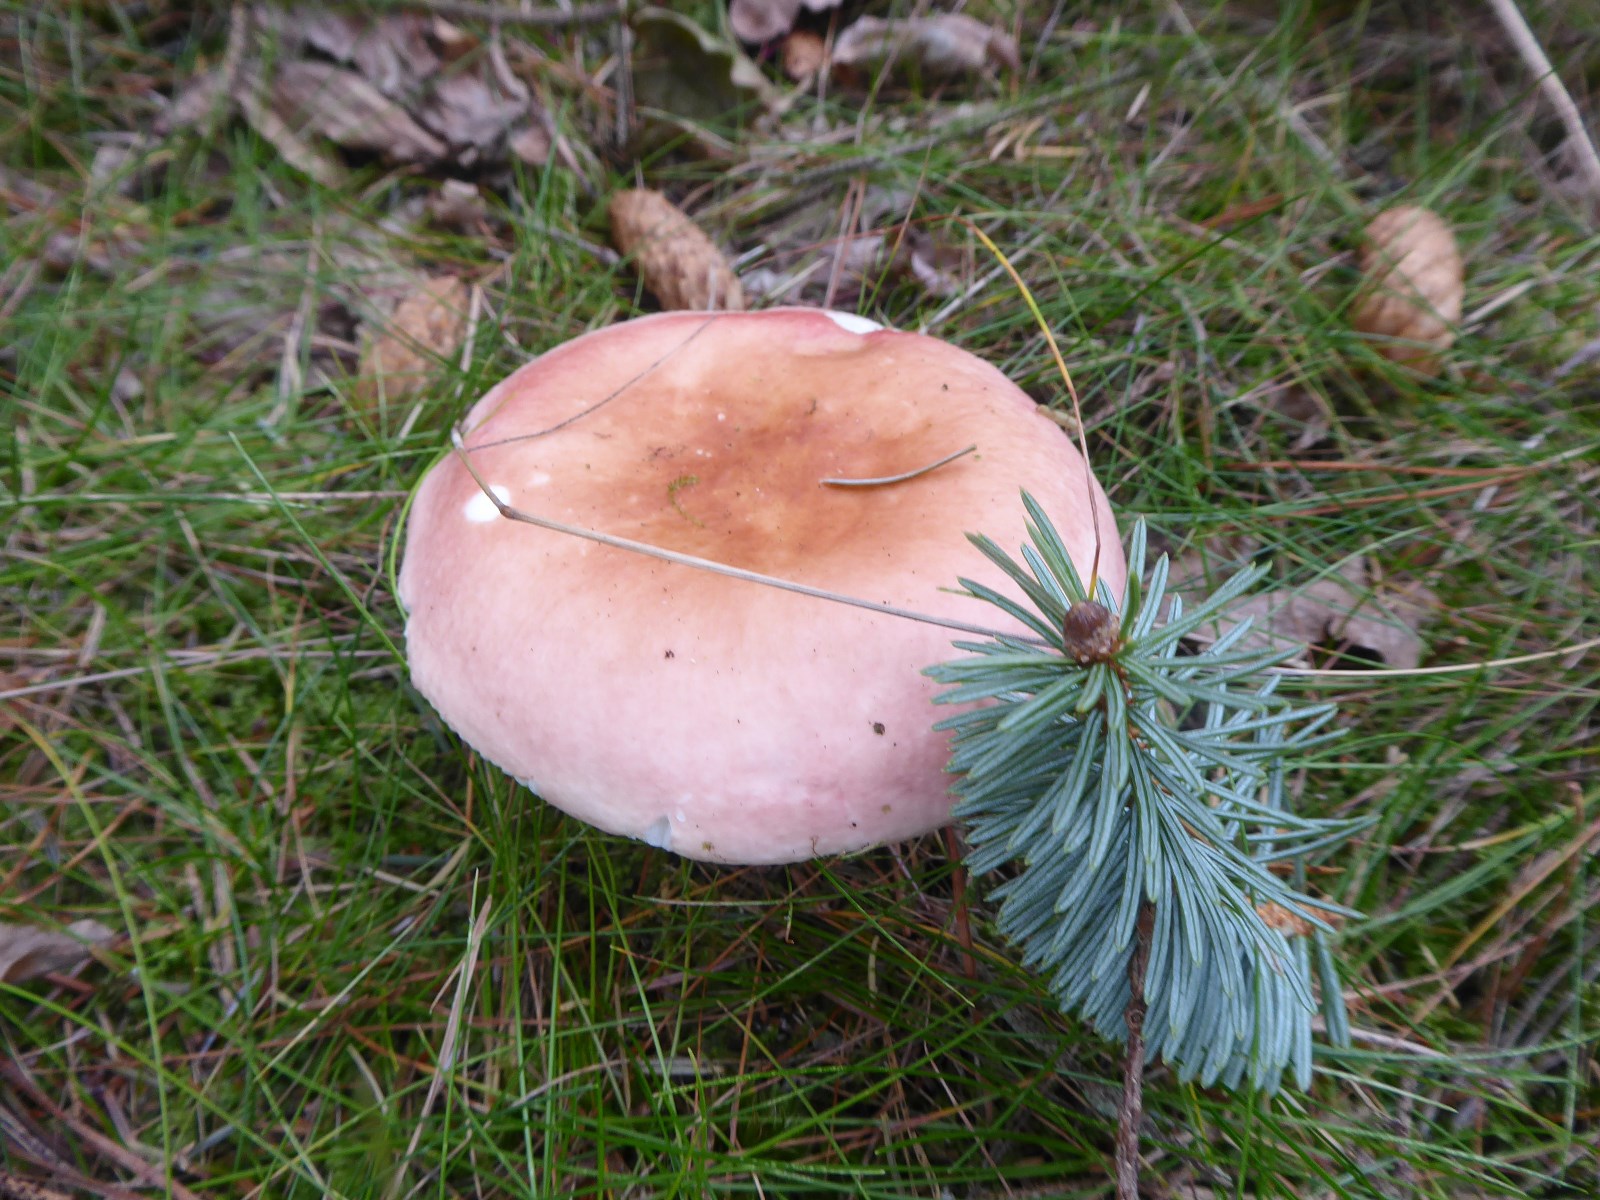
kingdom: Fungi
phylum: Basidiomycota
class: Agaricomycetes
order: Russulales
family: Russulaceae
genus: Russula
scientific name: Russula
